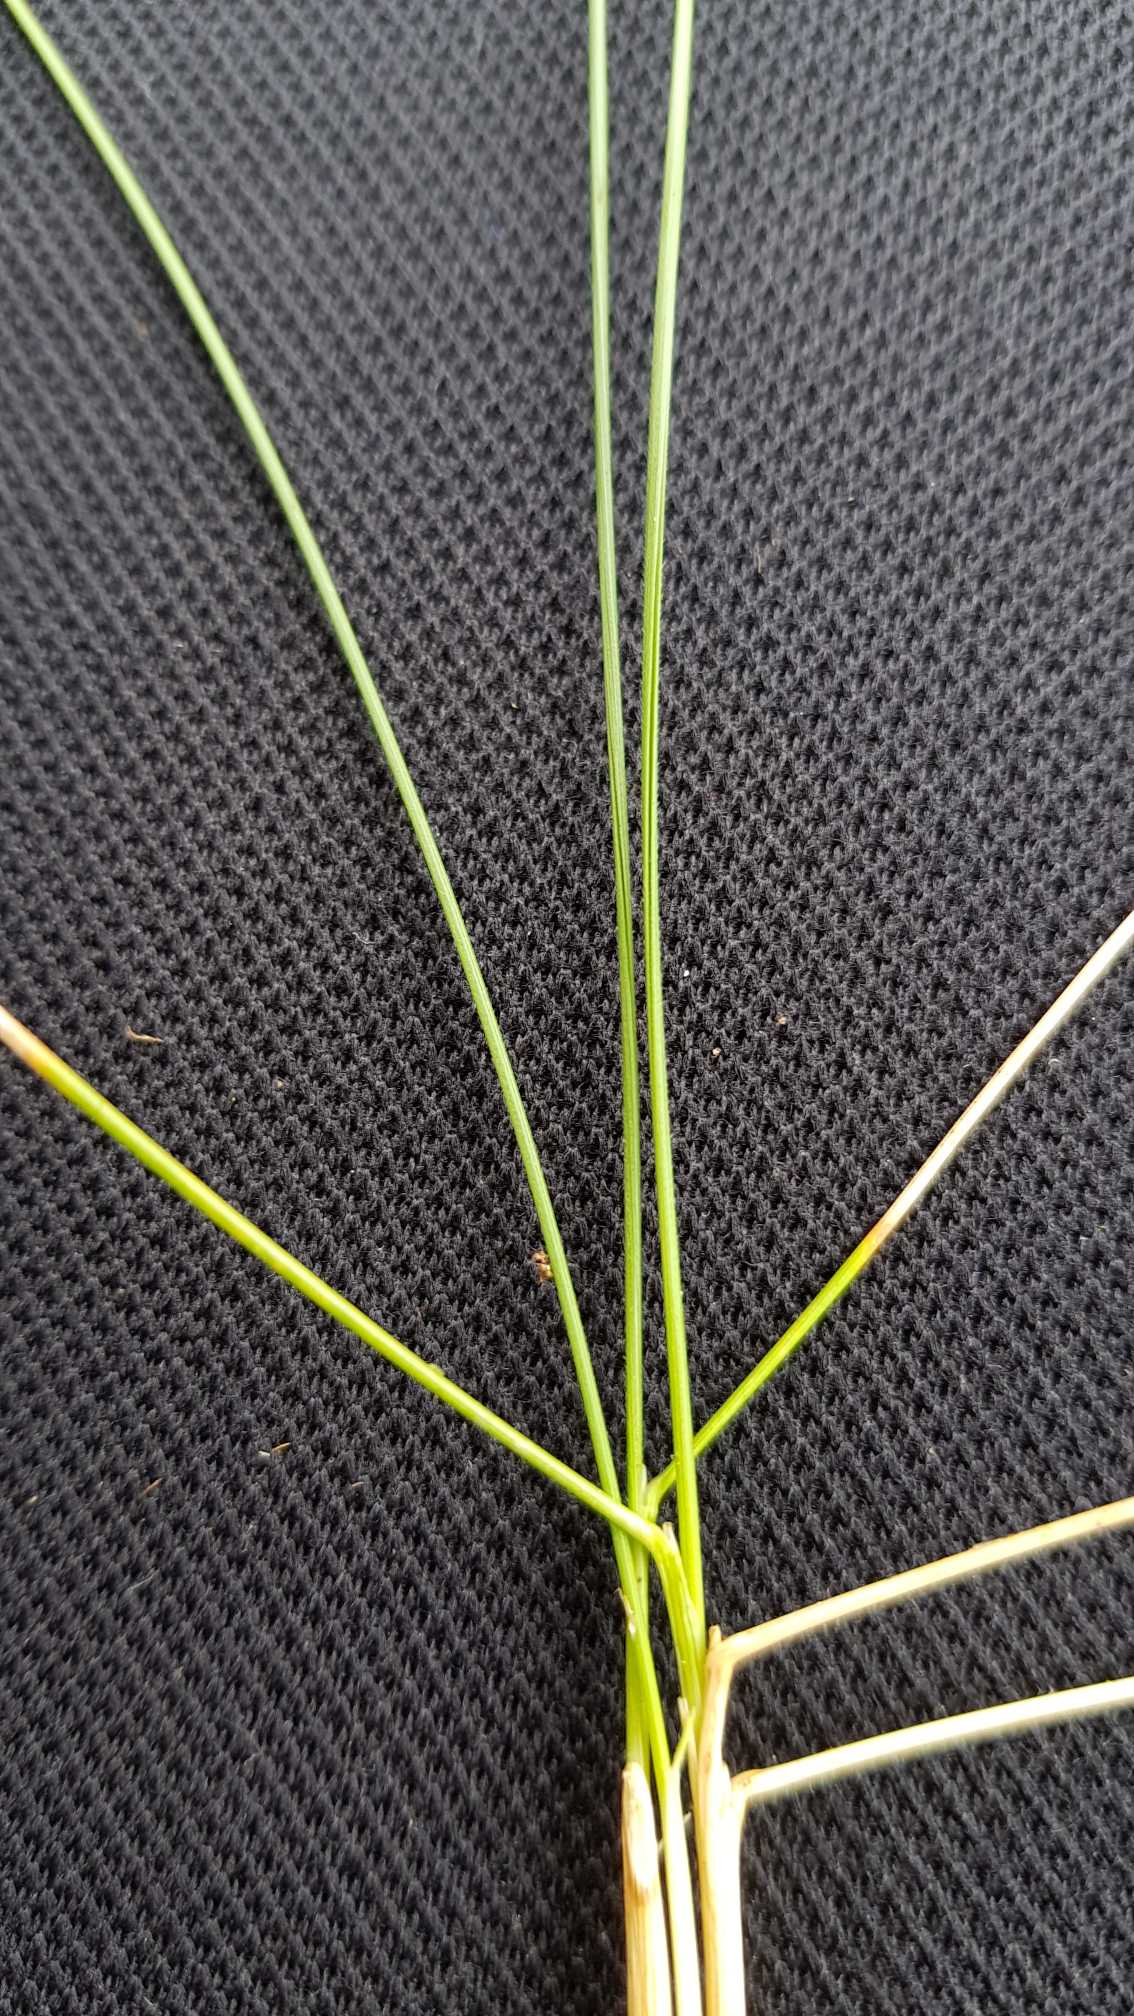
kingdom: Plantae
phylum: Tracheophyta
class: Liliopsida
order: Poales
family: Poaceae
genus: Nardus
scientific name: Nardus stricta
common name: Katteskæg
